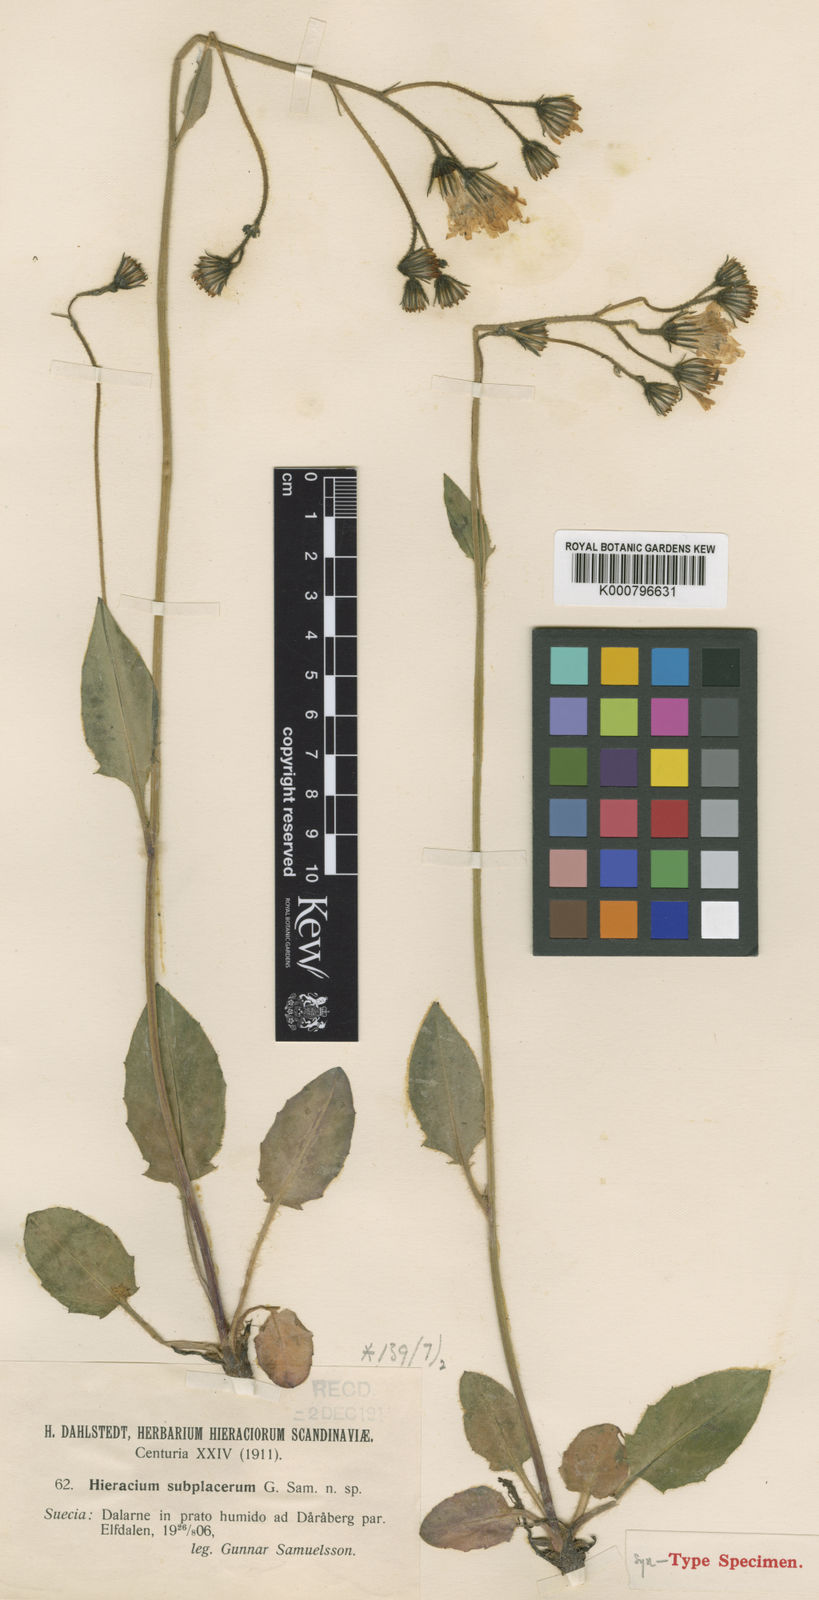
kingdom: Plantae
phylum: Tracheophyta
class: Magnoliopsida
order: Asterales
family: Asteraceae
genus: Hieracium
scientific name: Hieracium murorum
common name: Wall hawkweed
